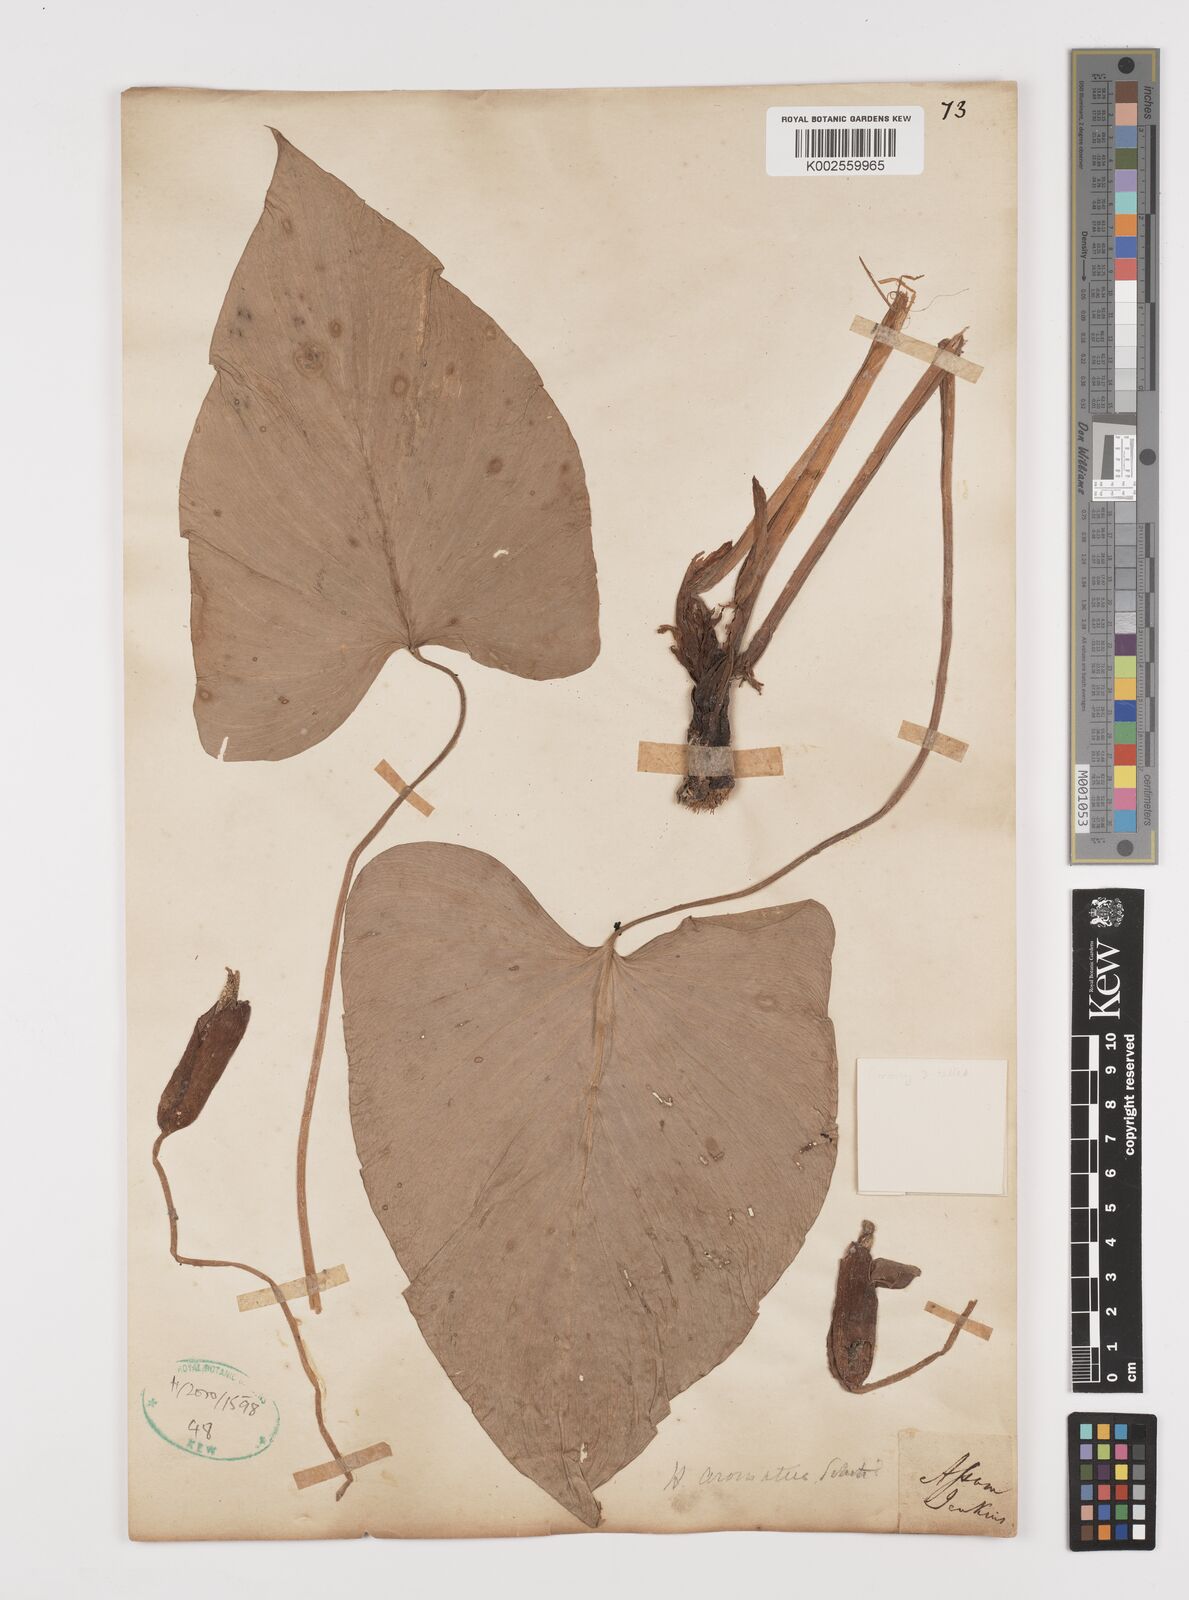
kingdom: Plantae
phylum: Tracheophyta
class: Liliopsida
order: Alismatales
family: Araceae
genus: Homalomena
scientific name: Homalomena aromatica
